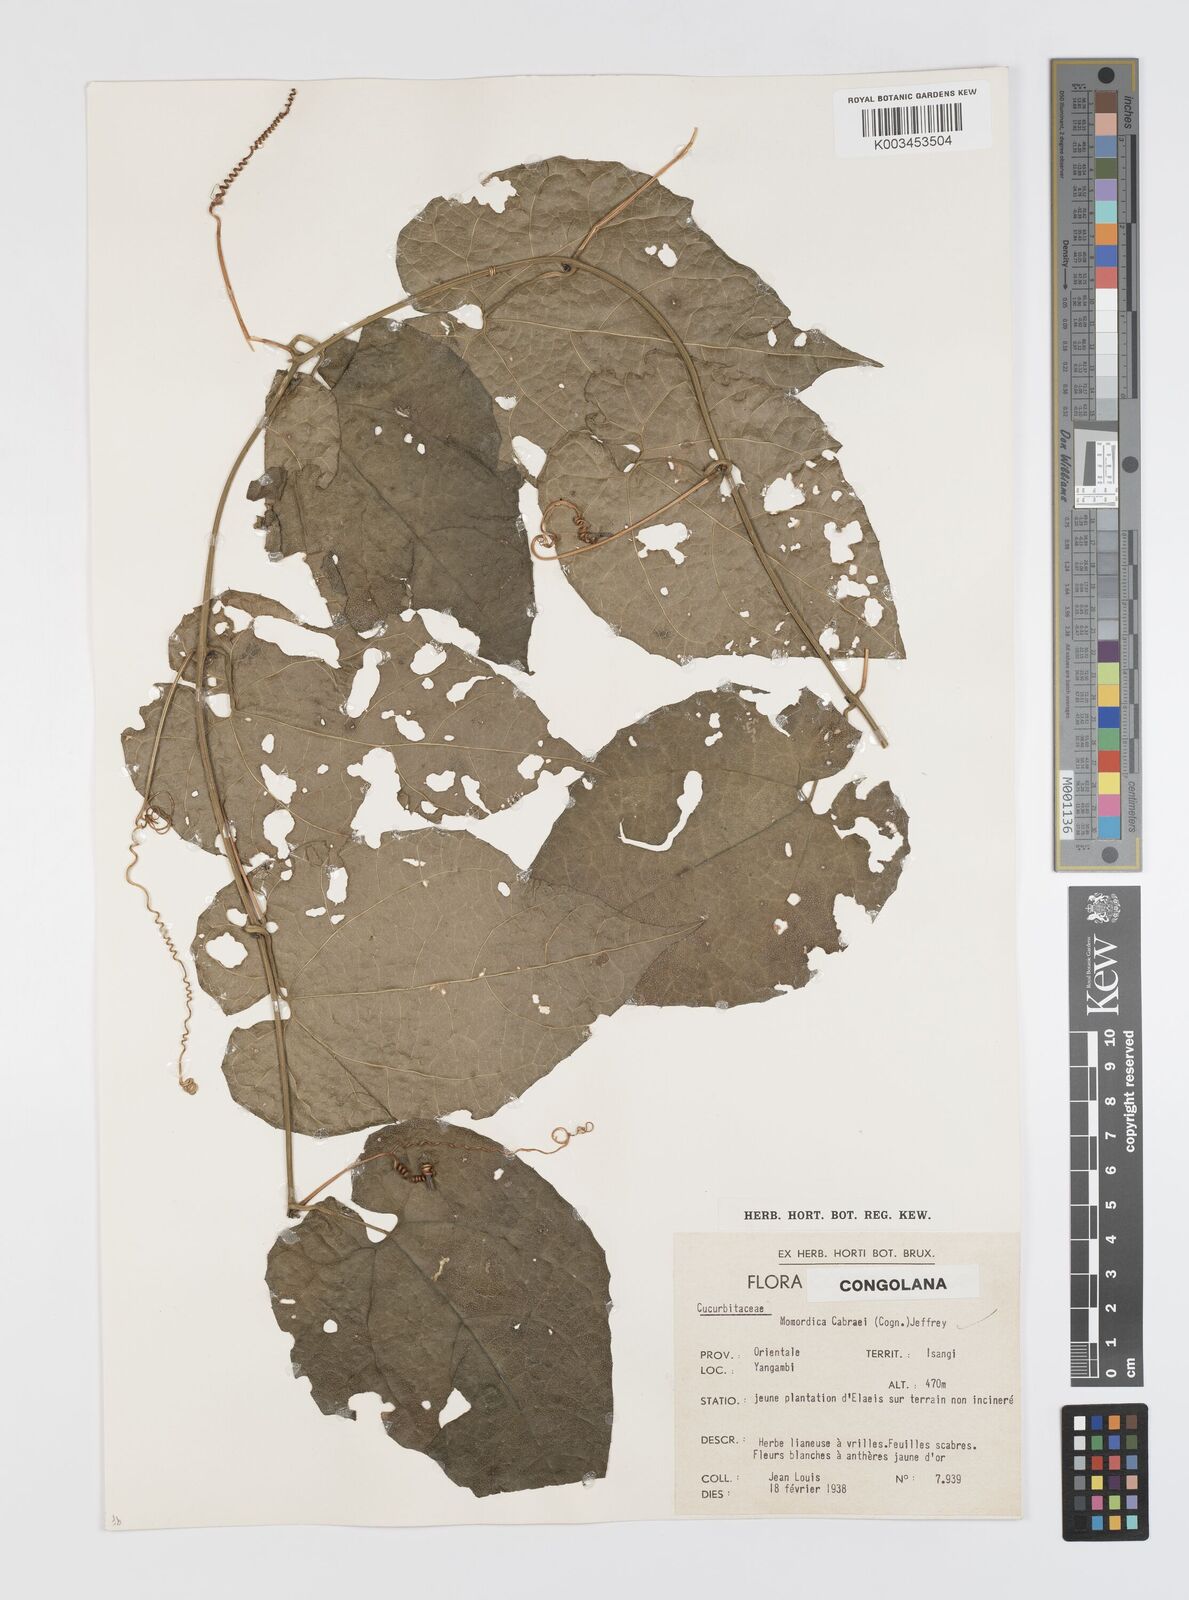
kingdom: Plantae
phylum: Tracheophyta
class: Magnoliopsida
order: Cucurbitales
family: Cucurbitaceae
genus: Momordica
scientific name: Momordica cabrae
